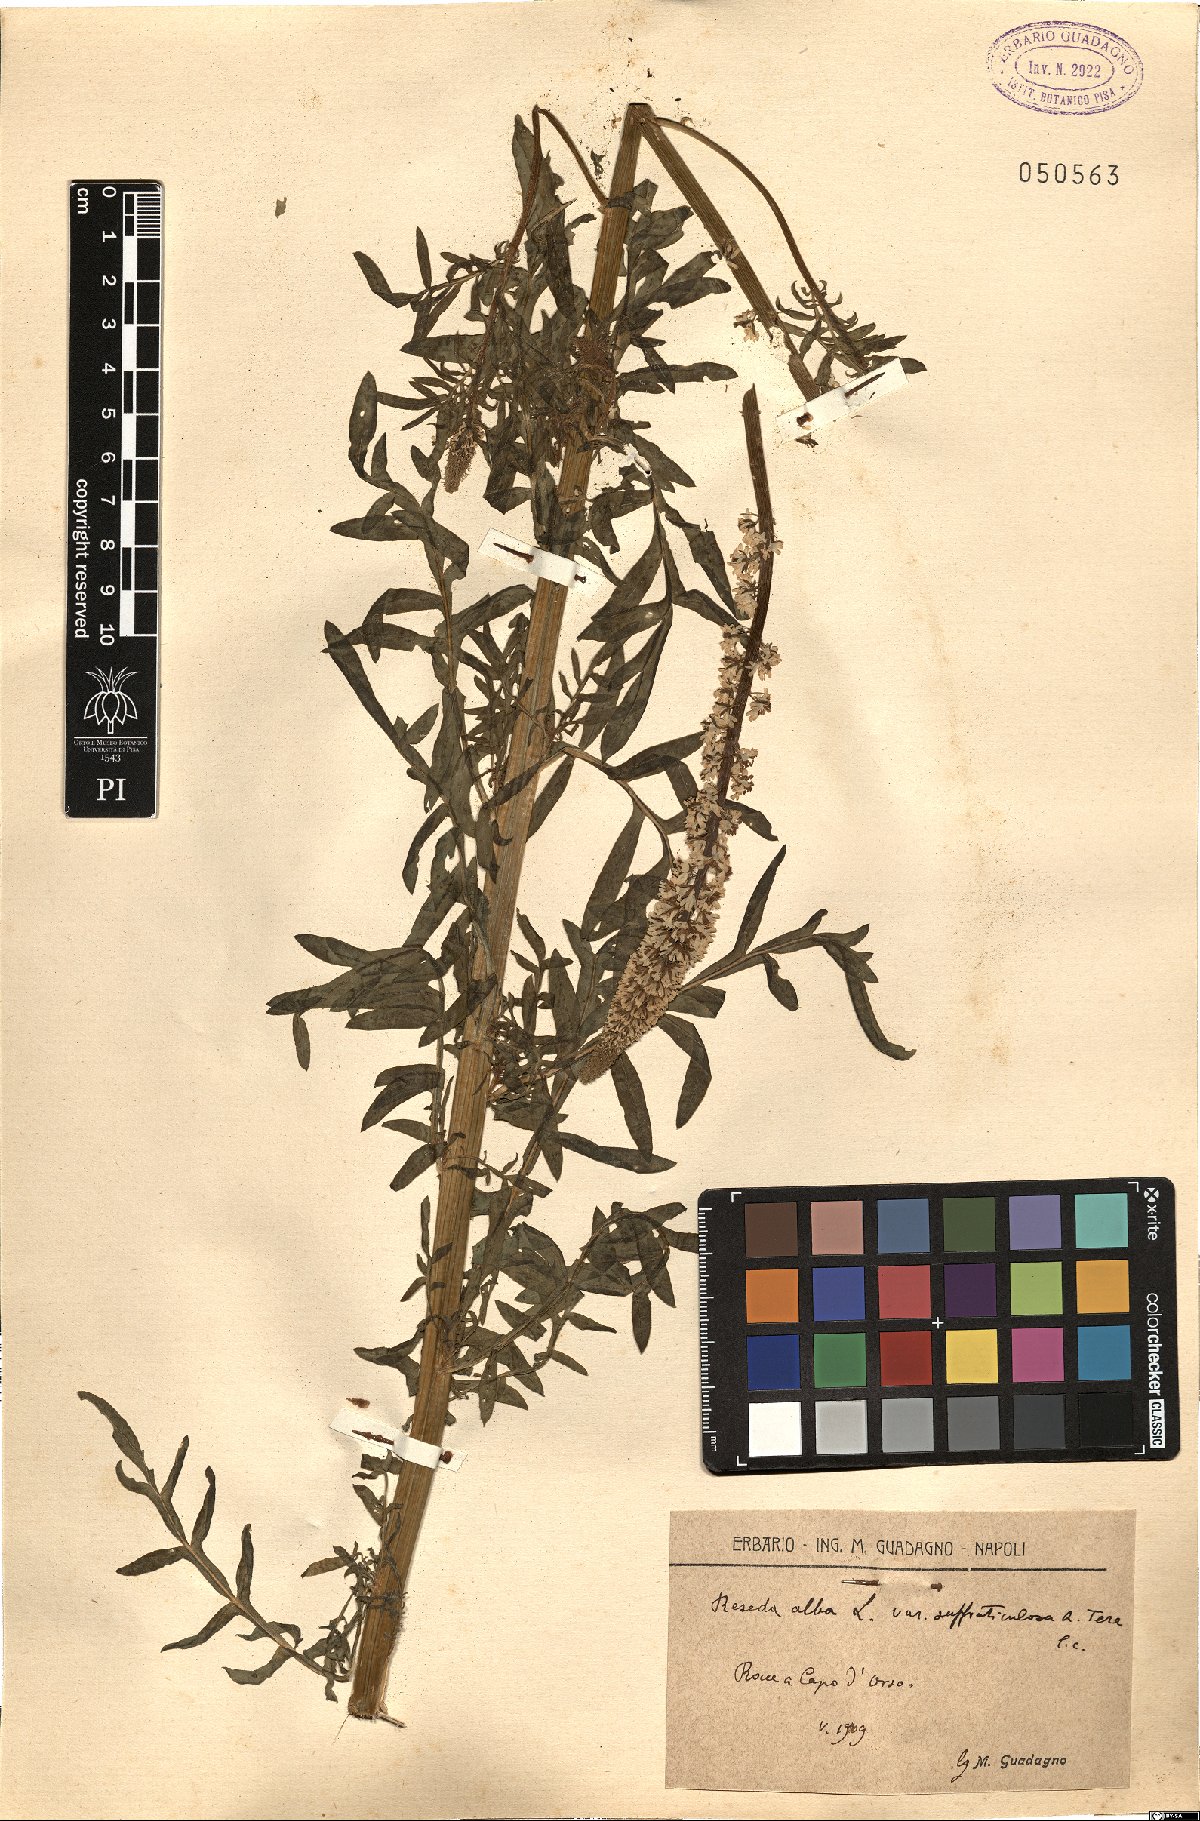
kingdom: Plantae
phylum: Tracheophyta
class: Magnoliopsida
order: Brassicales
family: Resedaceae
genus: Reseda
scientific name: Reseda alba
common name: White mignonette
